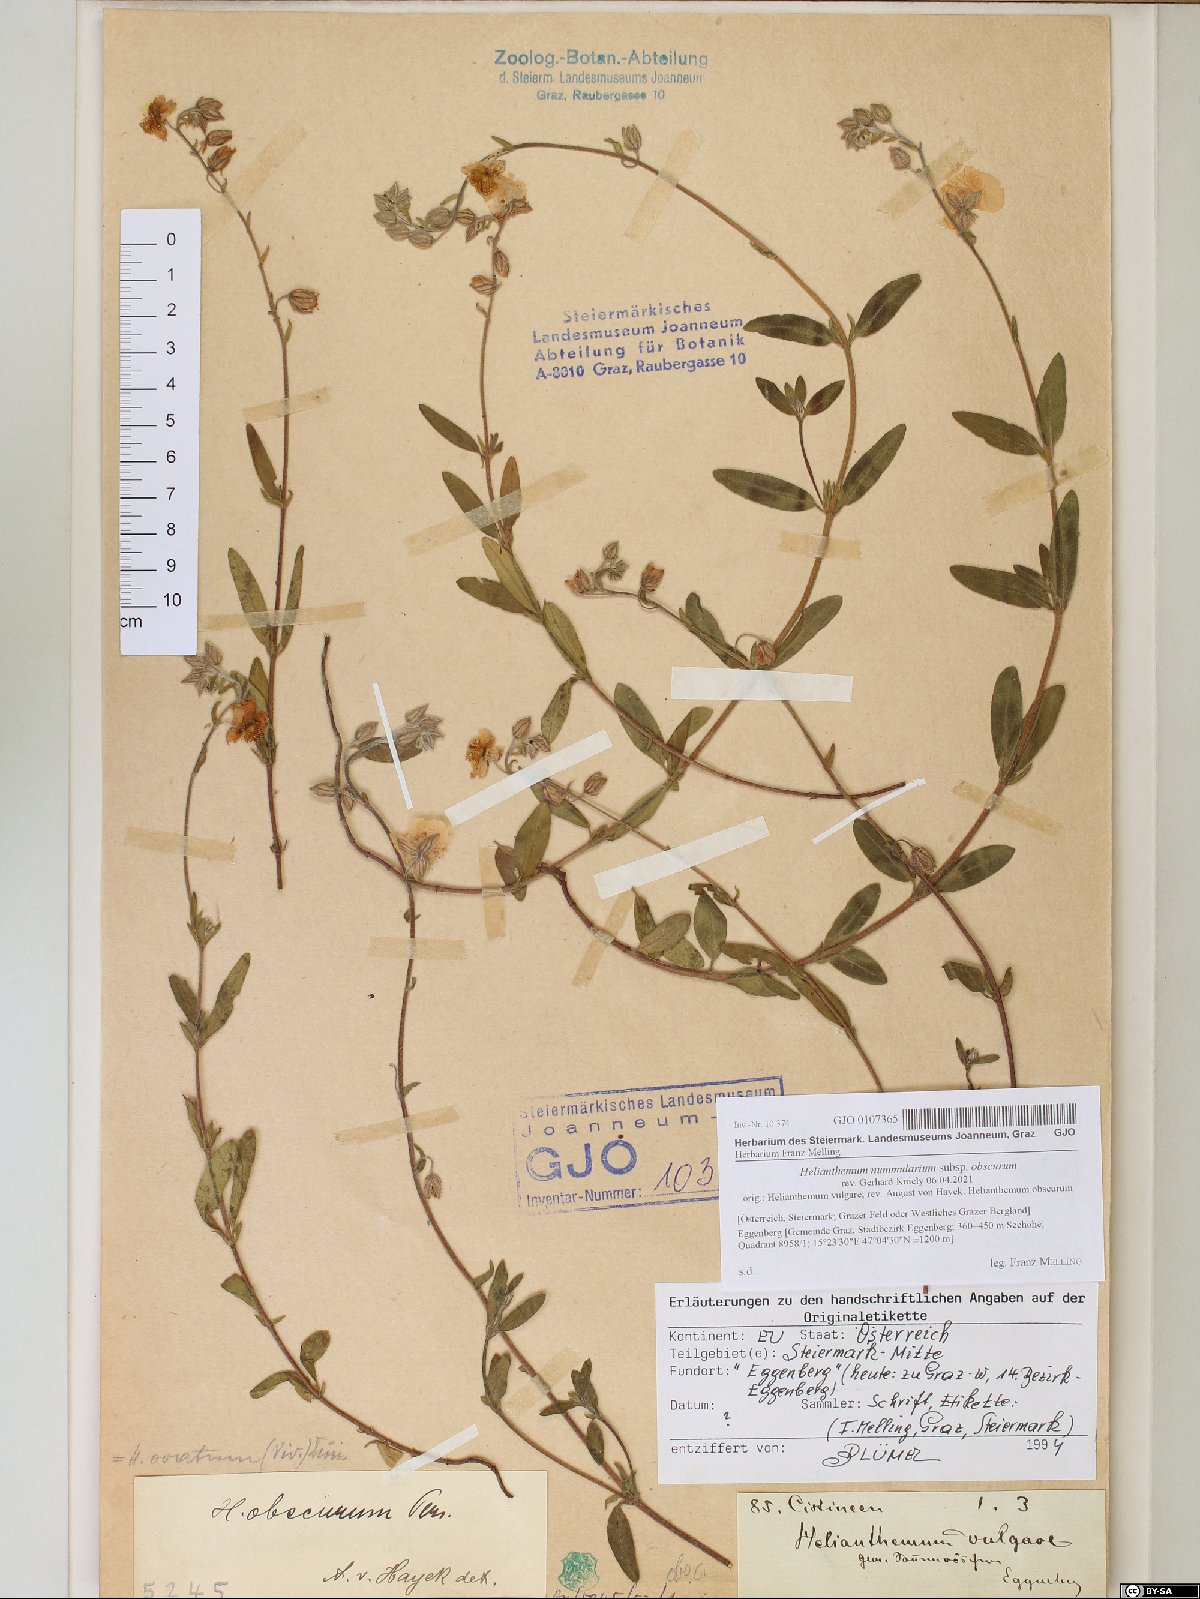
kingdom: Plantae
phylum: Tracheophyta
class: Magnoliopsida
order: Malvales
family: Cistaceae
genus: Helianthemum
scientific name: Helianthemum nummularium
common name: Common rock-rose
